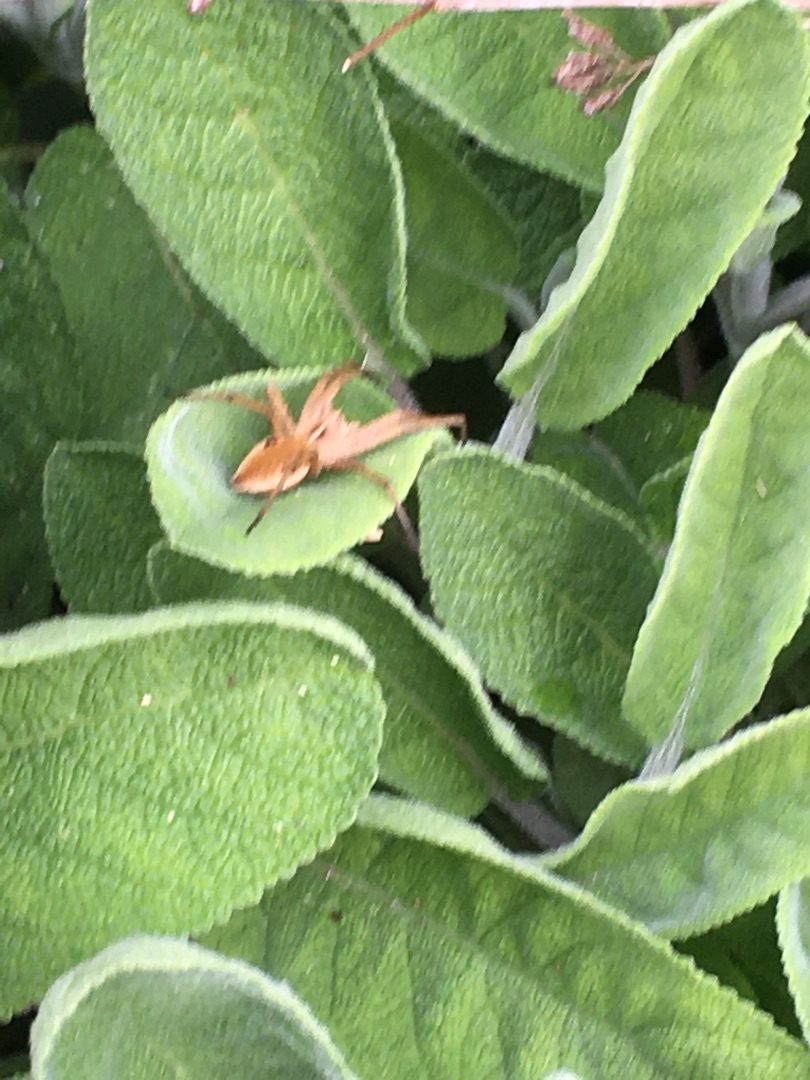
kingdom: Animalia
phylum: Arthropoda
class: Arachnida
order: Araneae
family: Pisauridae
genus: Pisaura
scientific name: Pisaura mirabilis
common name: Almindelig rovedderkop
